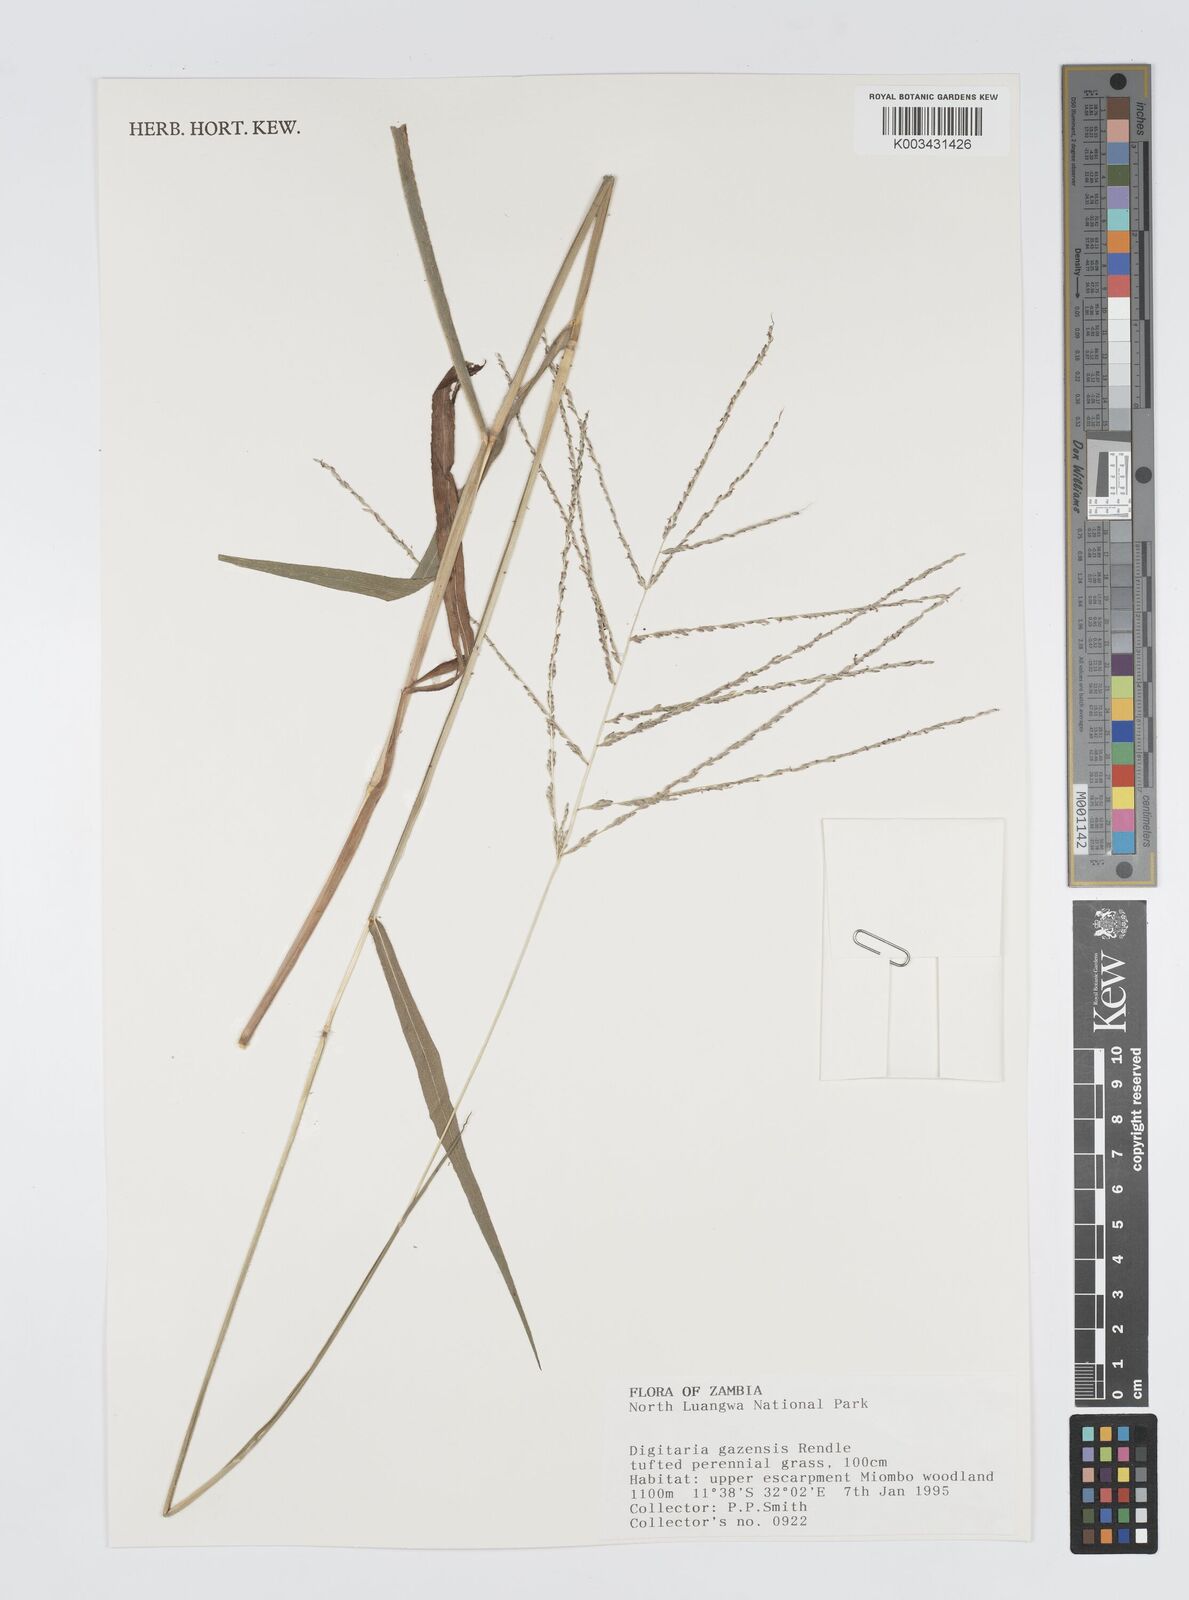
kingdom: Plantae
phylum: Tracheophyta
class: Liliopsida
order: Poales
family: Poaceae
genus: Digitaria
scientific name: Digitaria gazensis
